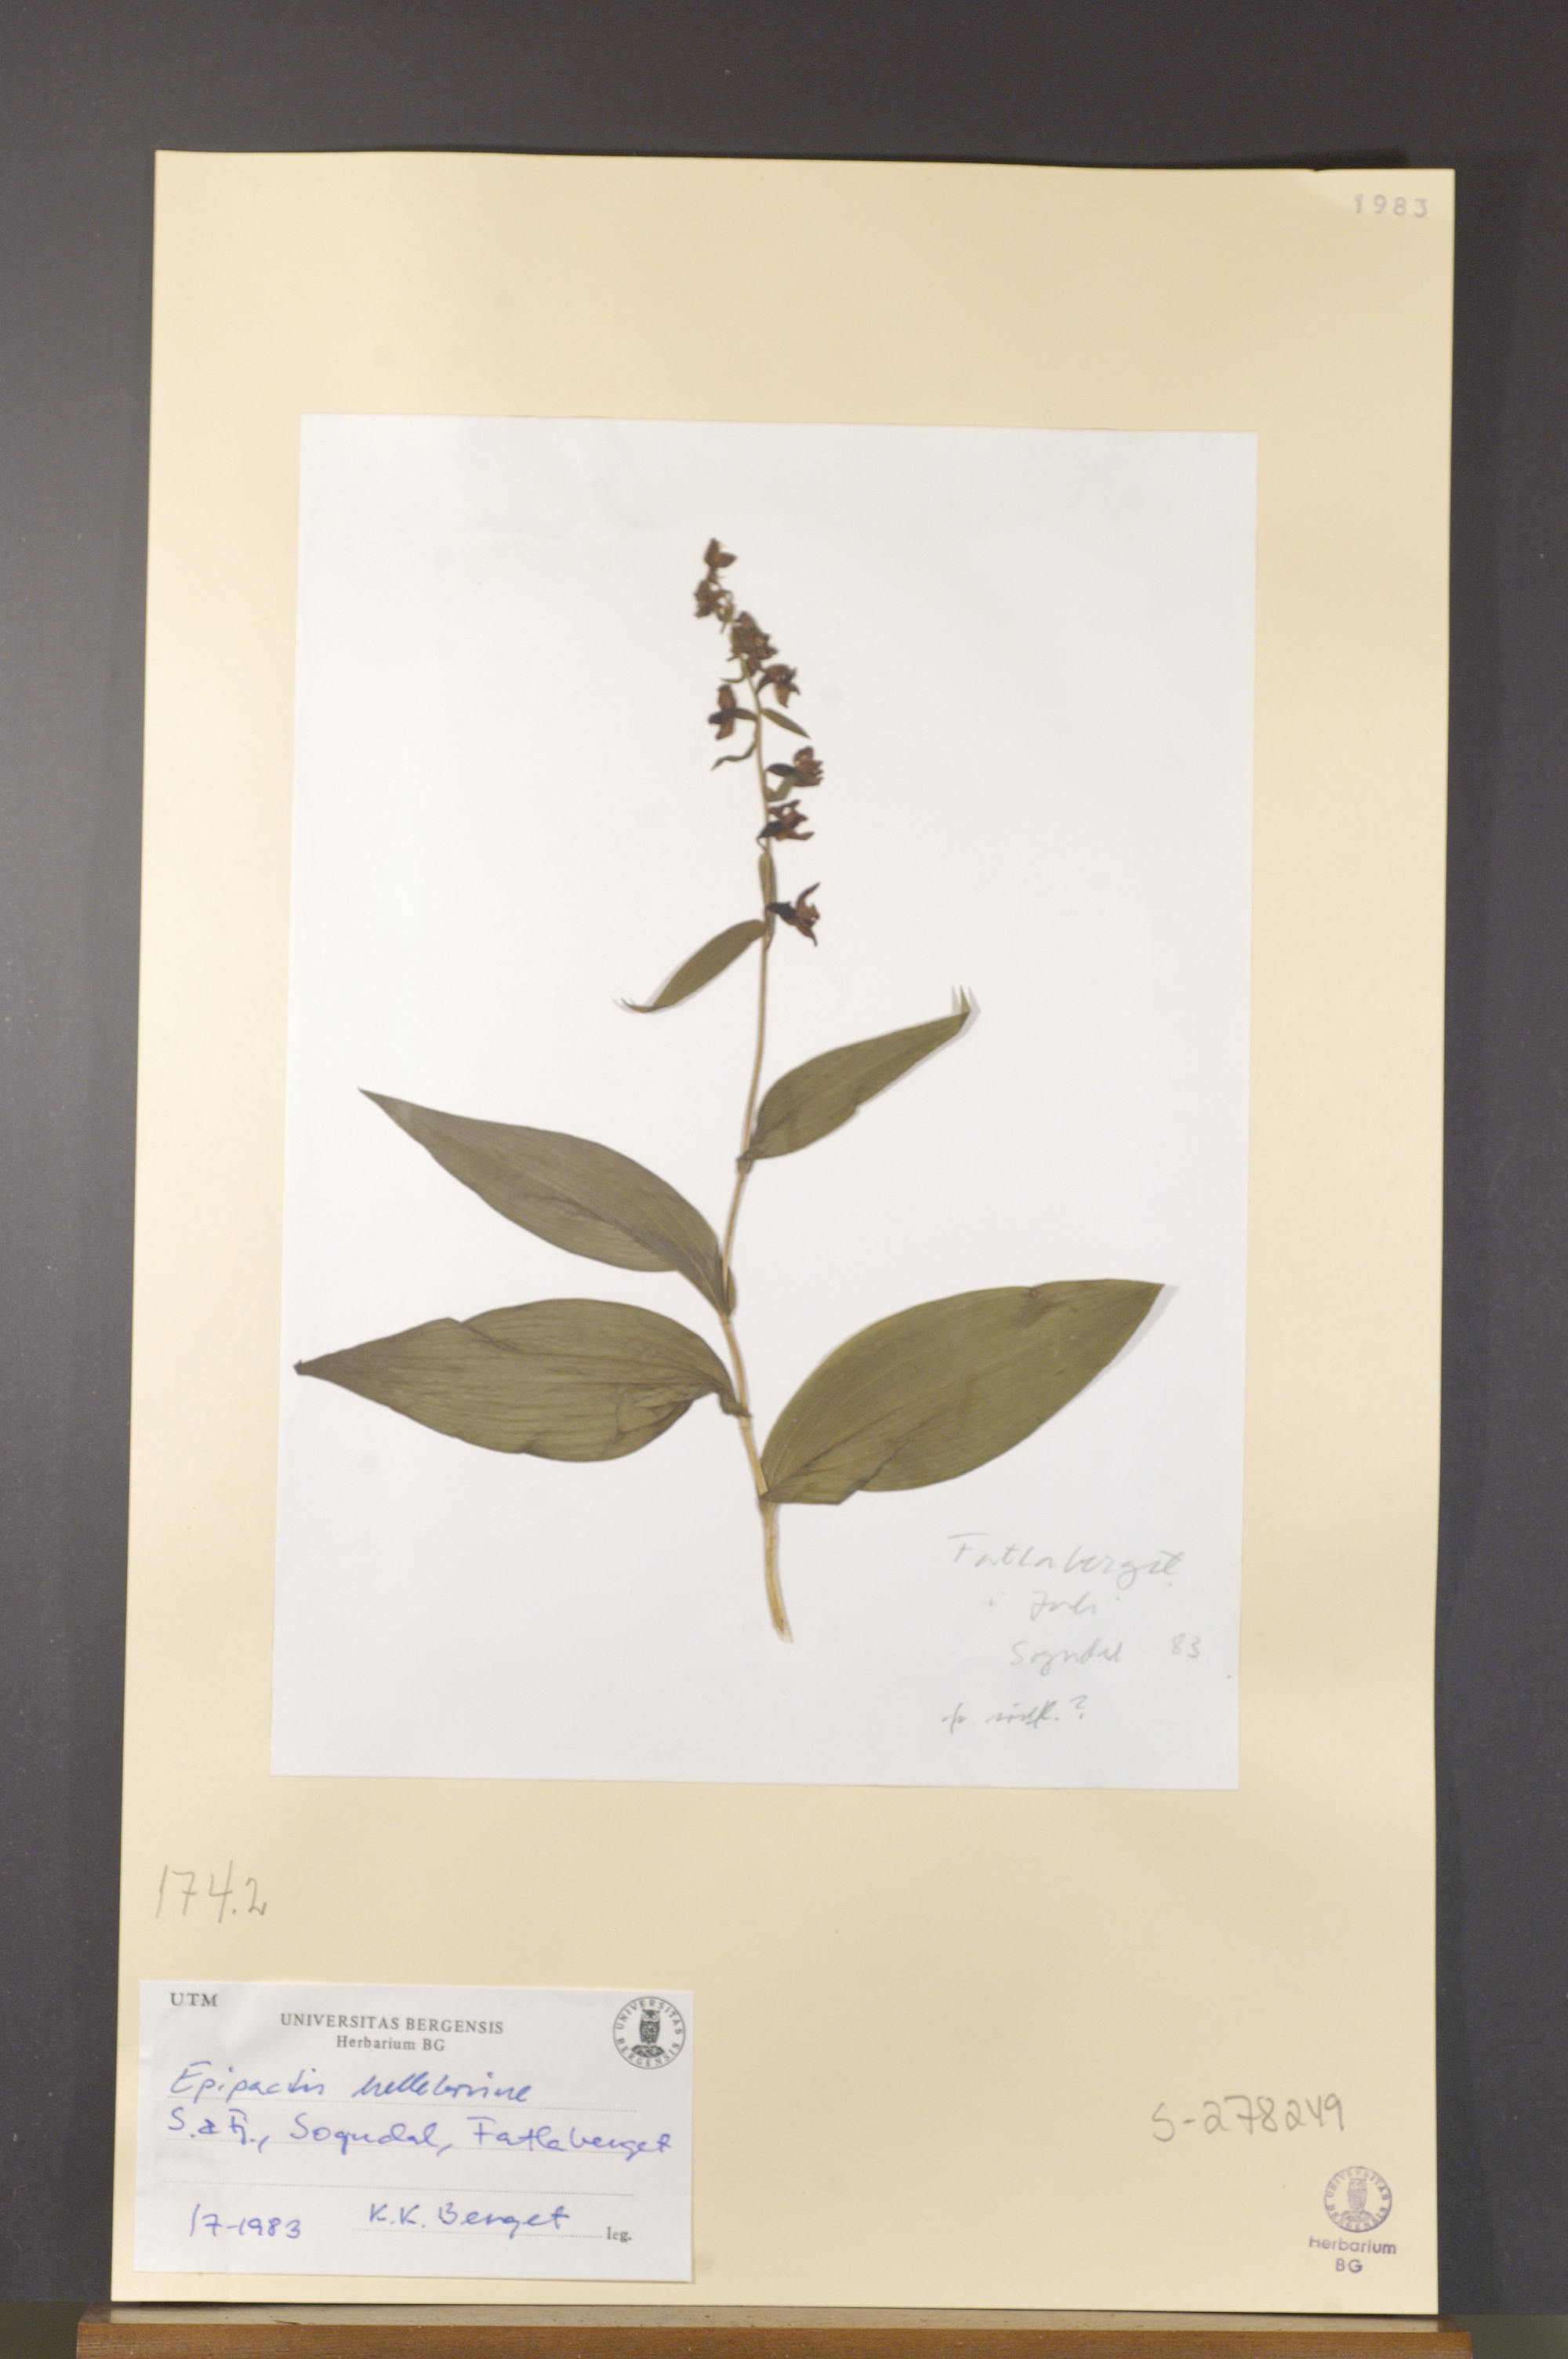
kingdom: Plantae
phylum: Tracheophyta
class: Liliopsida
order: Asparagales
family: Orchidaceae
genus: Epipactis
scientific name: Epipactis helleborine
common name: Broad-leaved helleborine
